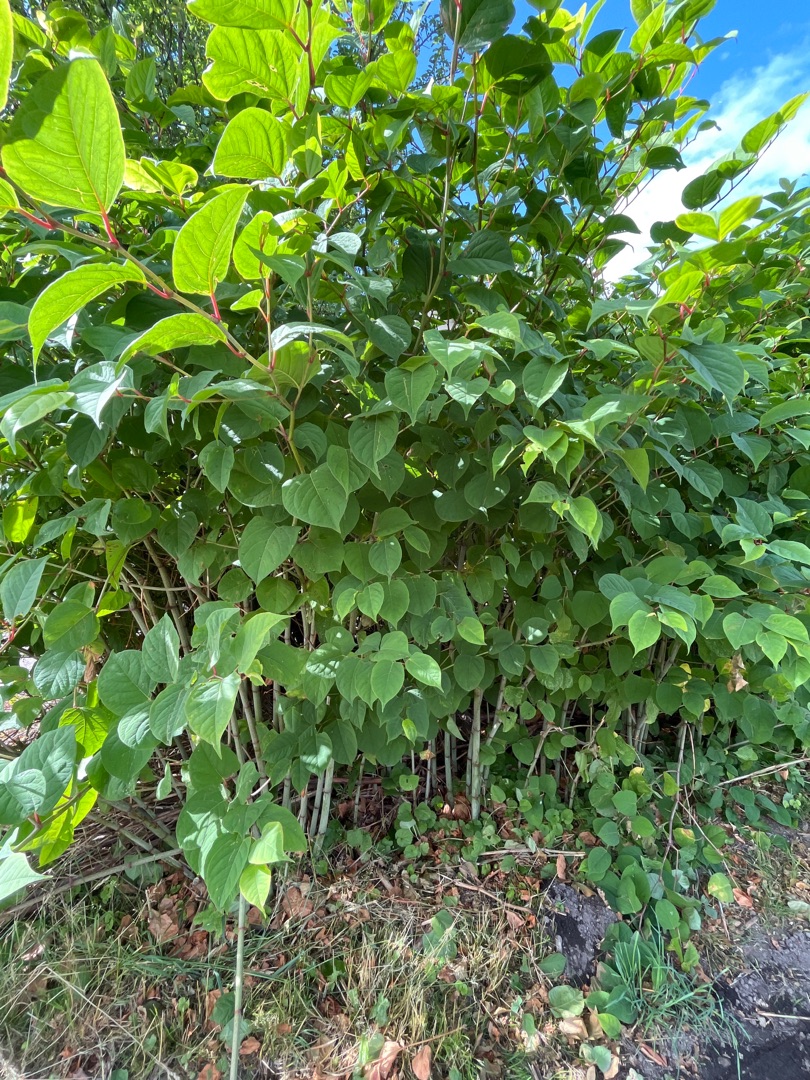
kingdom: Plantae
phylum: Tracheophyta
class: Magnoliopsida
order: Caryophyllales
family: Polygonaceae
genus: Reynoutria
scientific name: Reynoutria japonica
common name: Japan-pileurt
